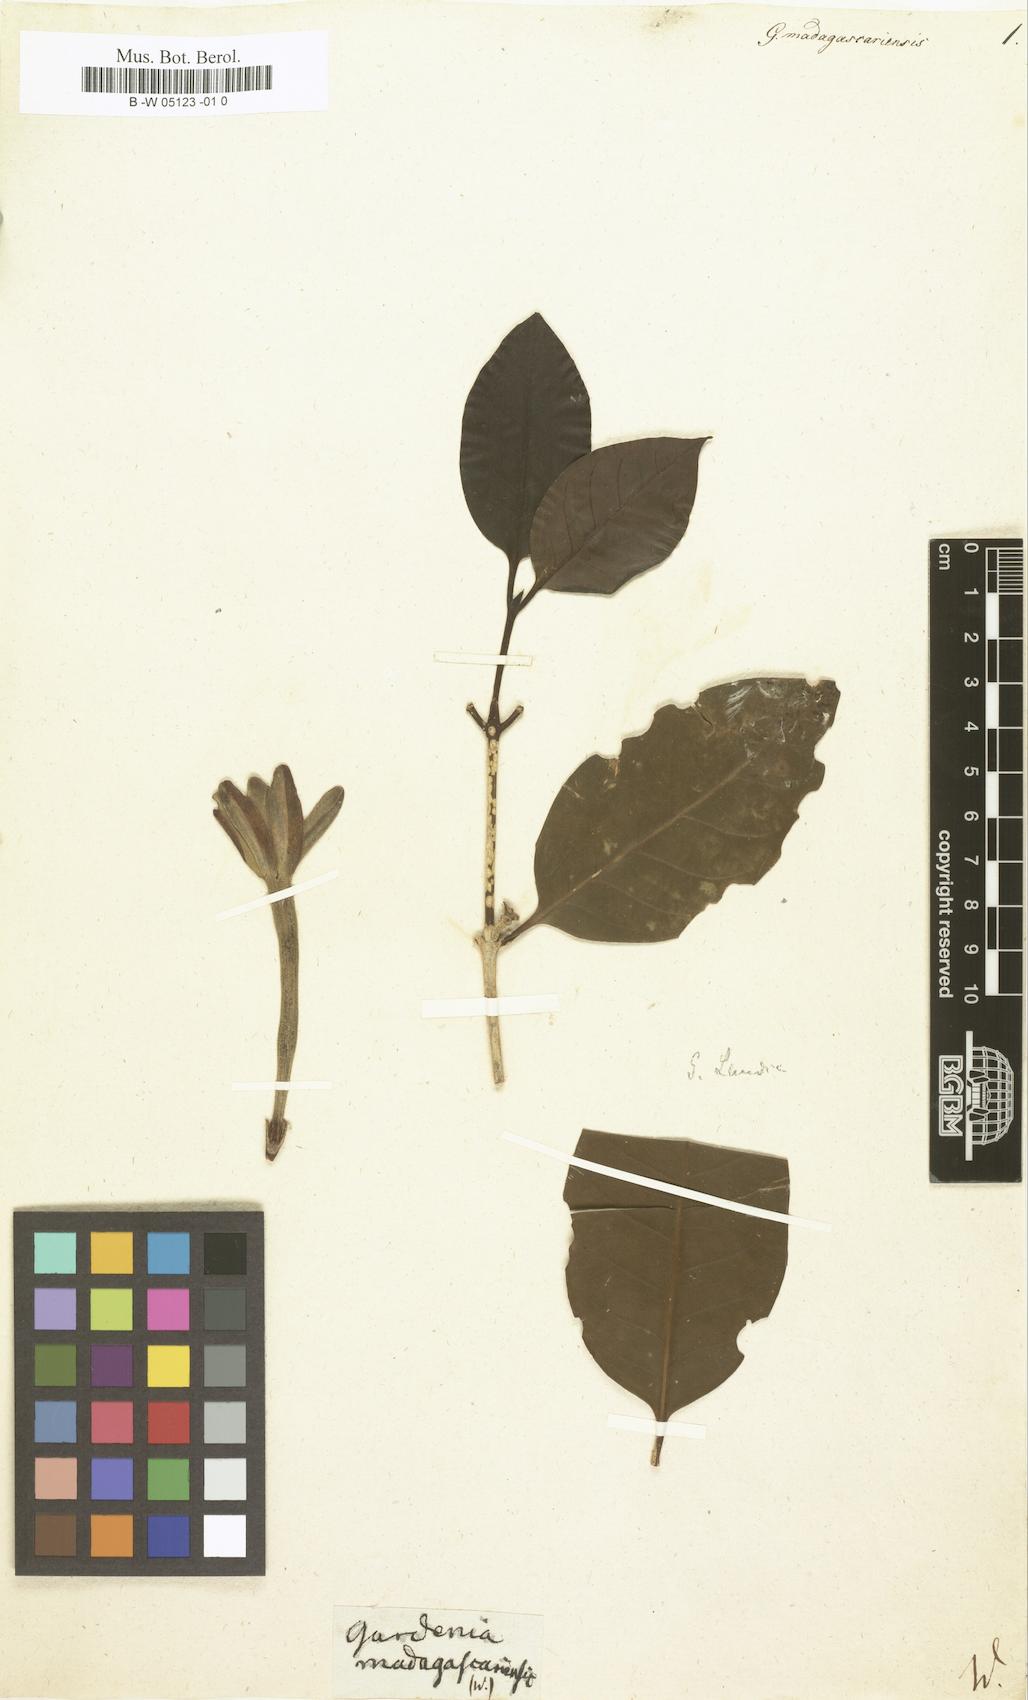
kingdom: Plantae
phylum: Tracheophyta
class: Magnoliopsida
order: Gentianales
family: Rubiaceae
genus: Hyperacanthus
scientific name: Hyperacanthus madagascariensis
